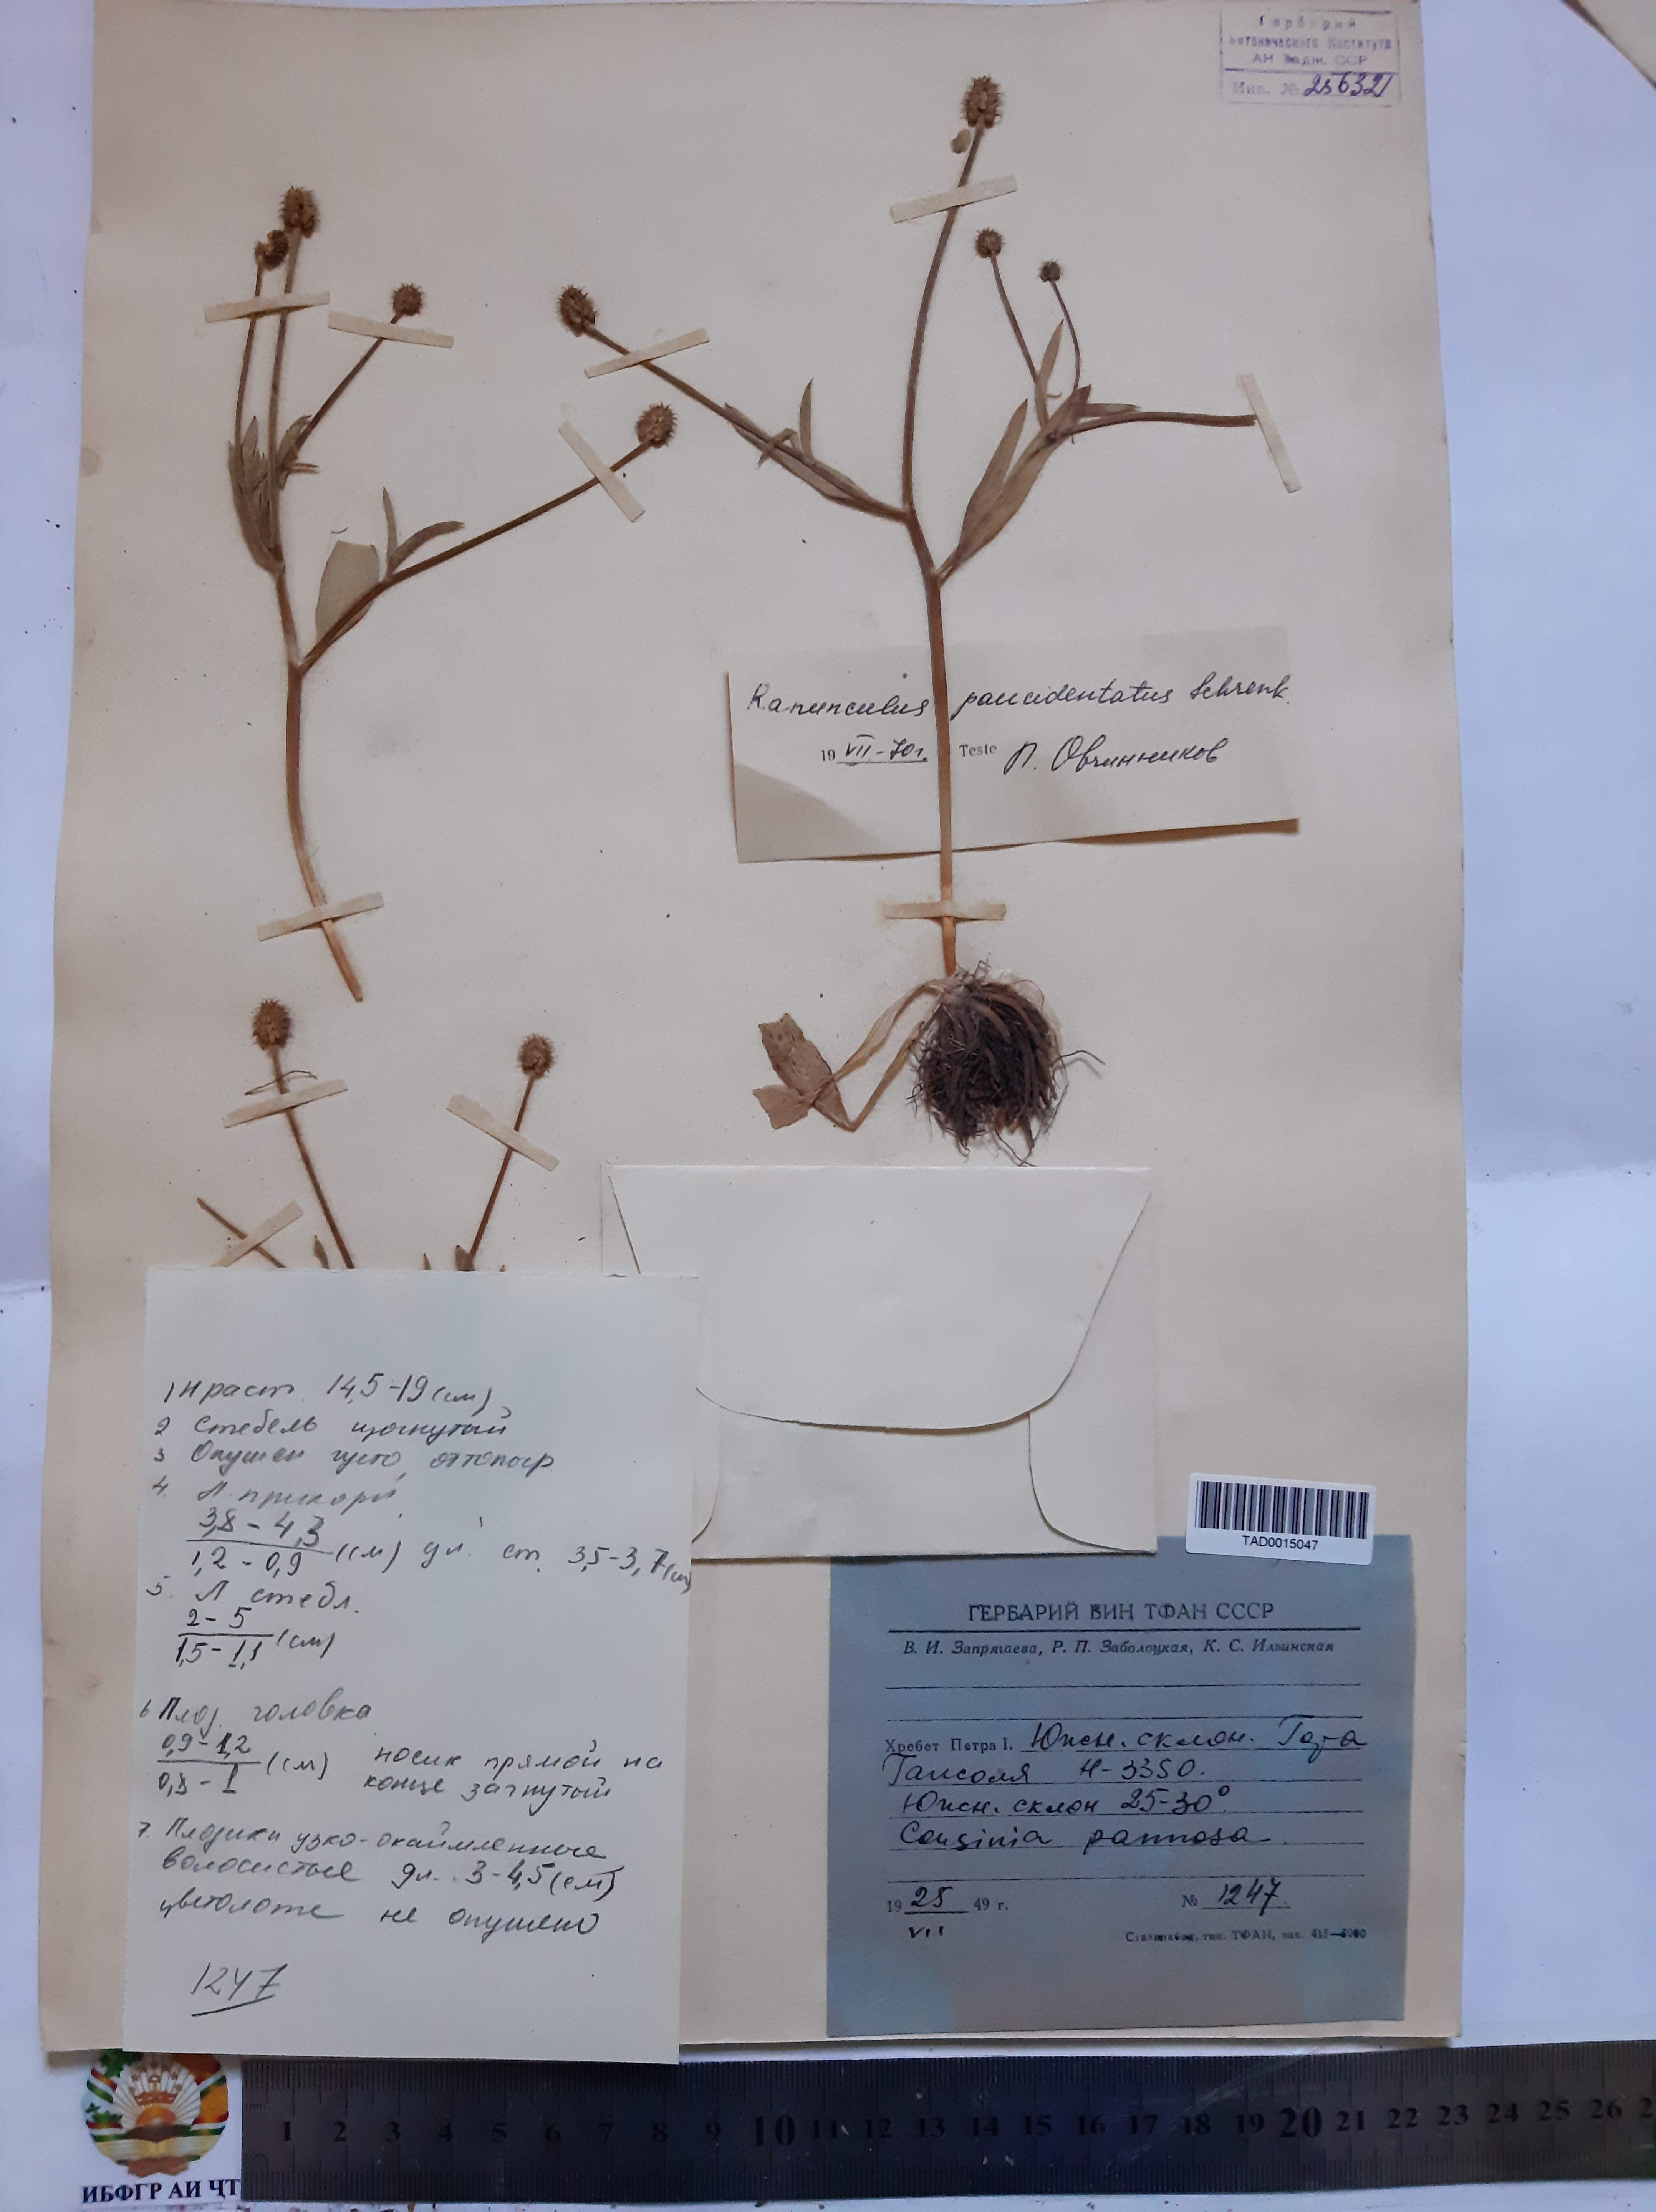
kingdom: Plantae
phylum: Tracheophyta
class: Magnoliopsida
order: Ranunculales
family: Ranunculaceae
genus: Ranunculus
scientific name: Ranunculus paucidentatus
